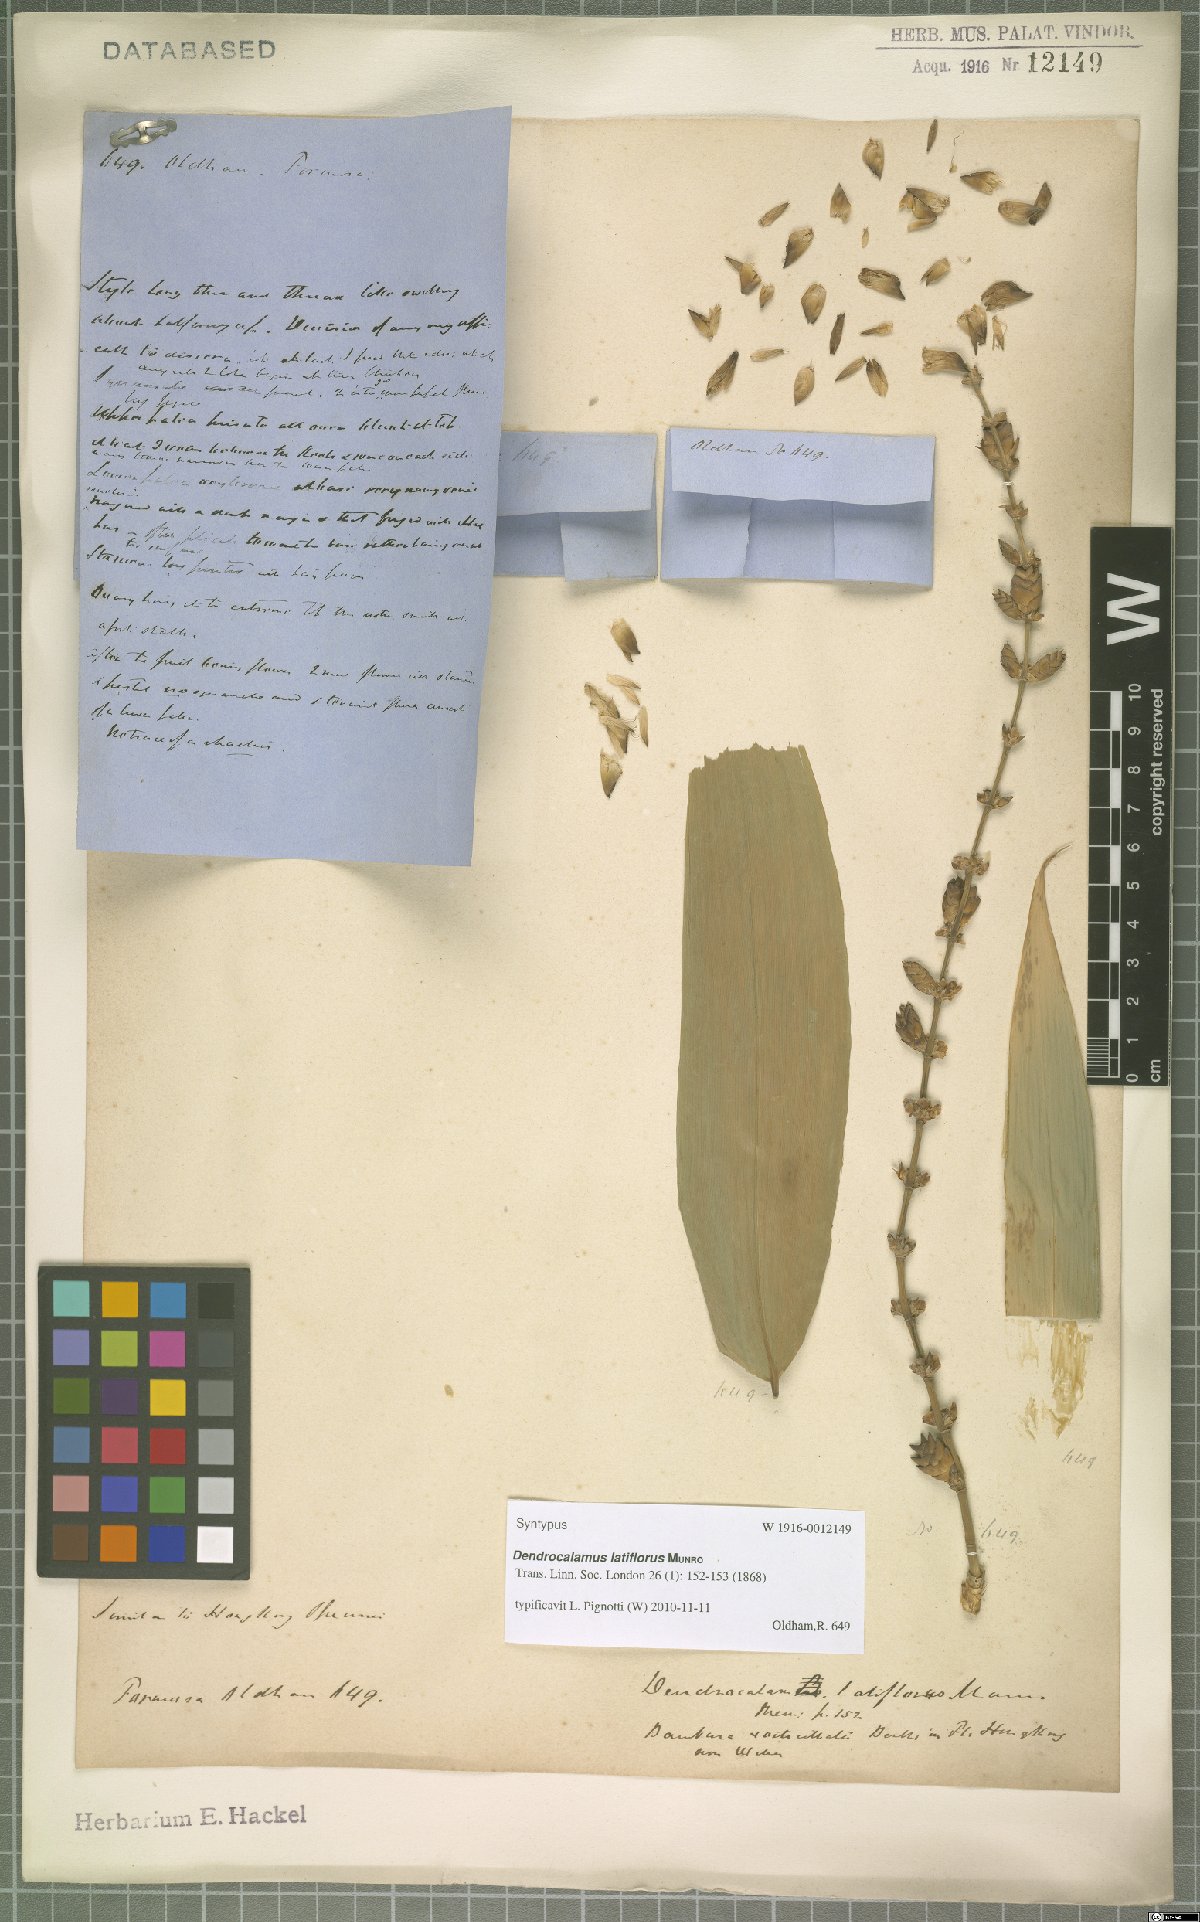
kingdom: Plantae
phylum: Tracheophyta
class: Liliopsida
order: Poales
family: Poaceae
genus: Dendrocalamus
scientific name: Dendrocalamus latiflorus
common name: Giant bamboo
